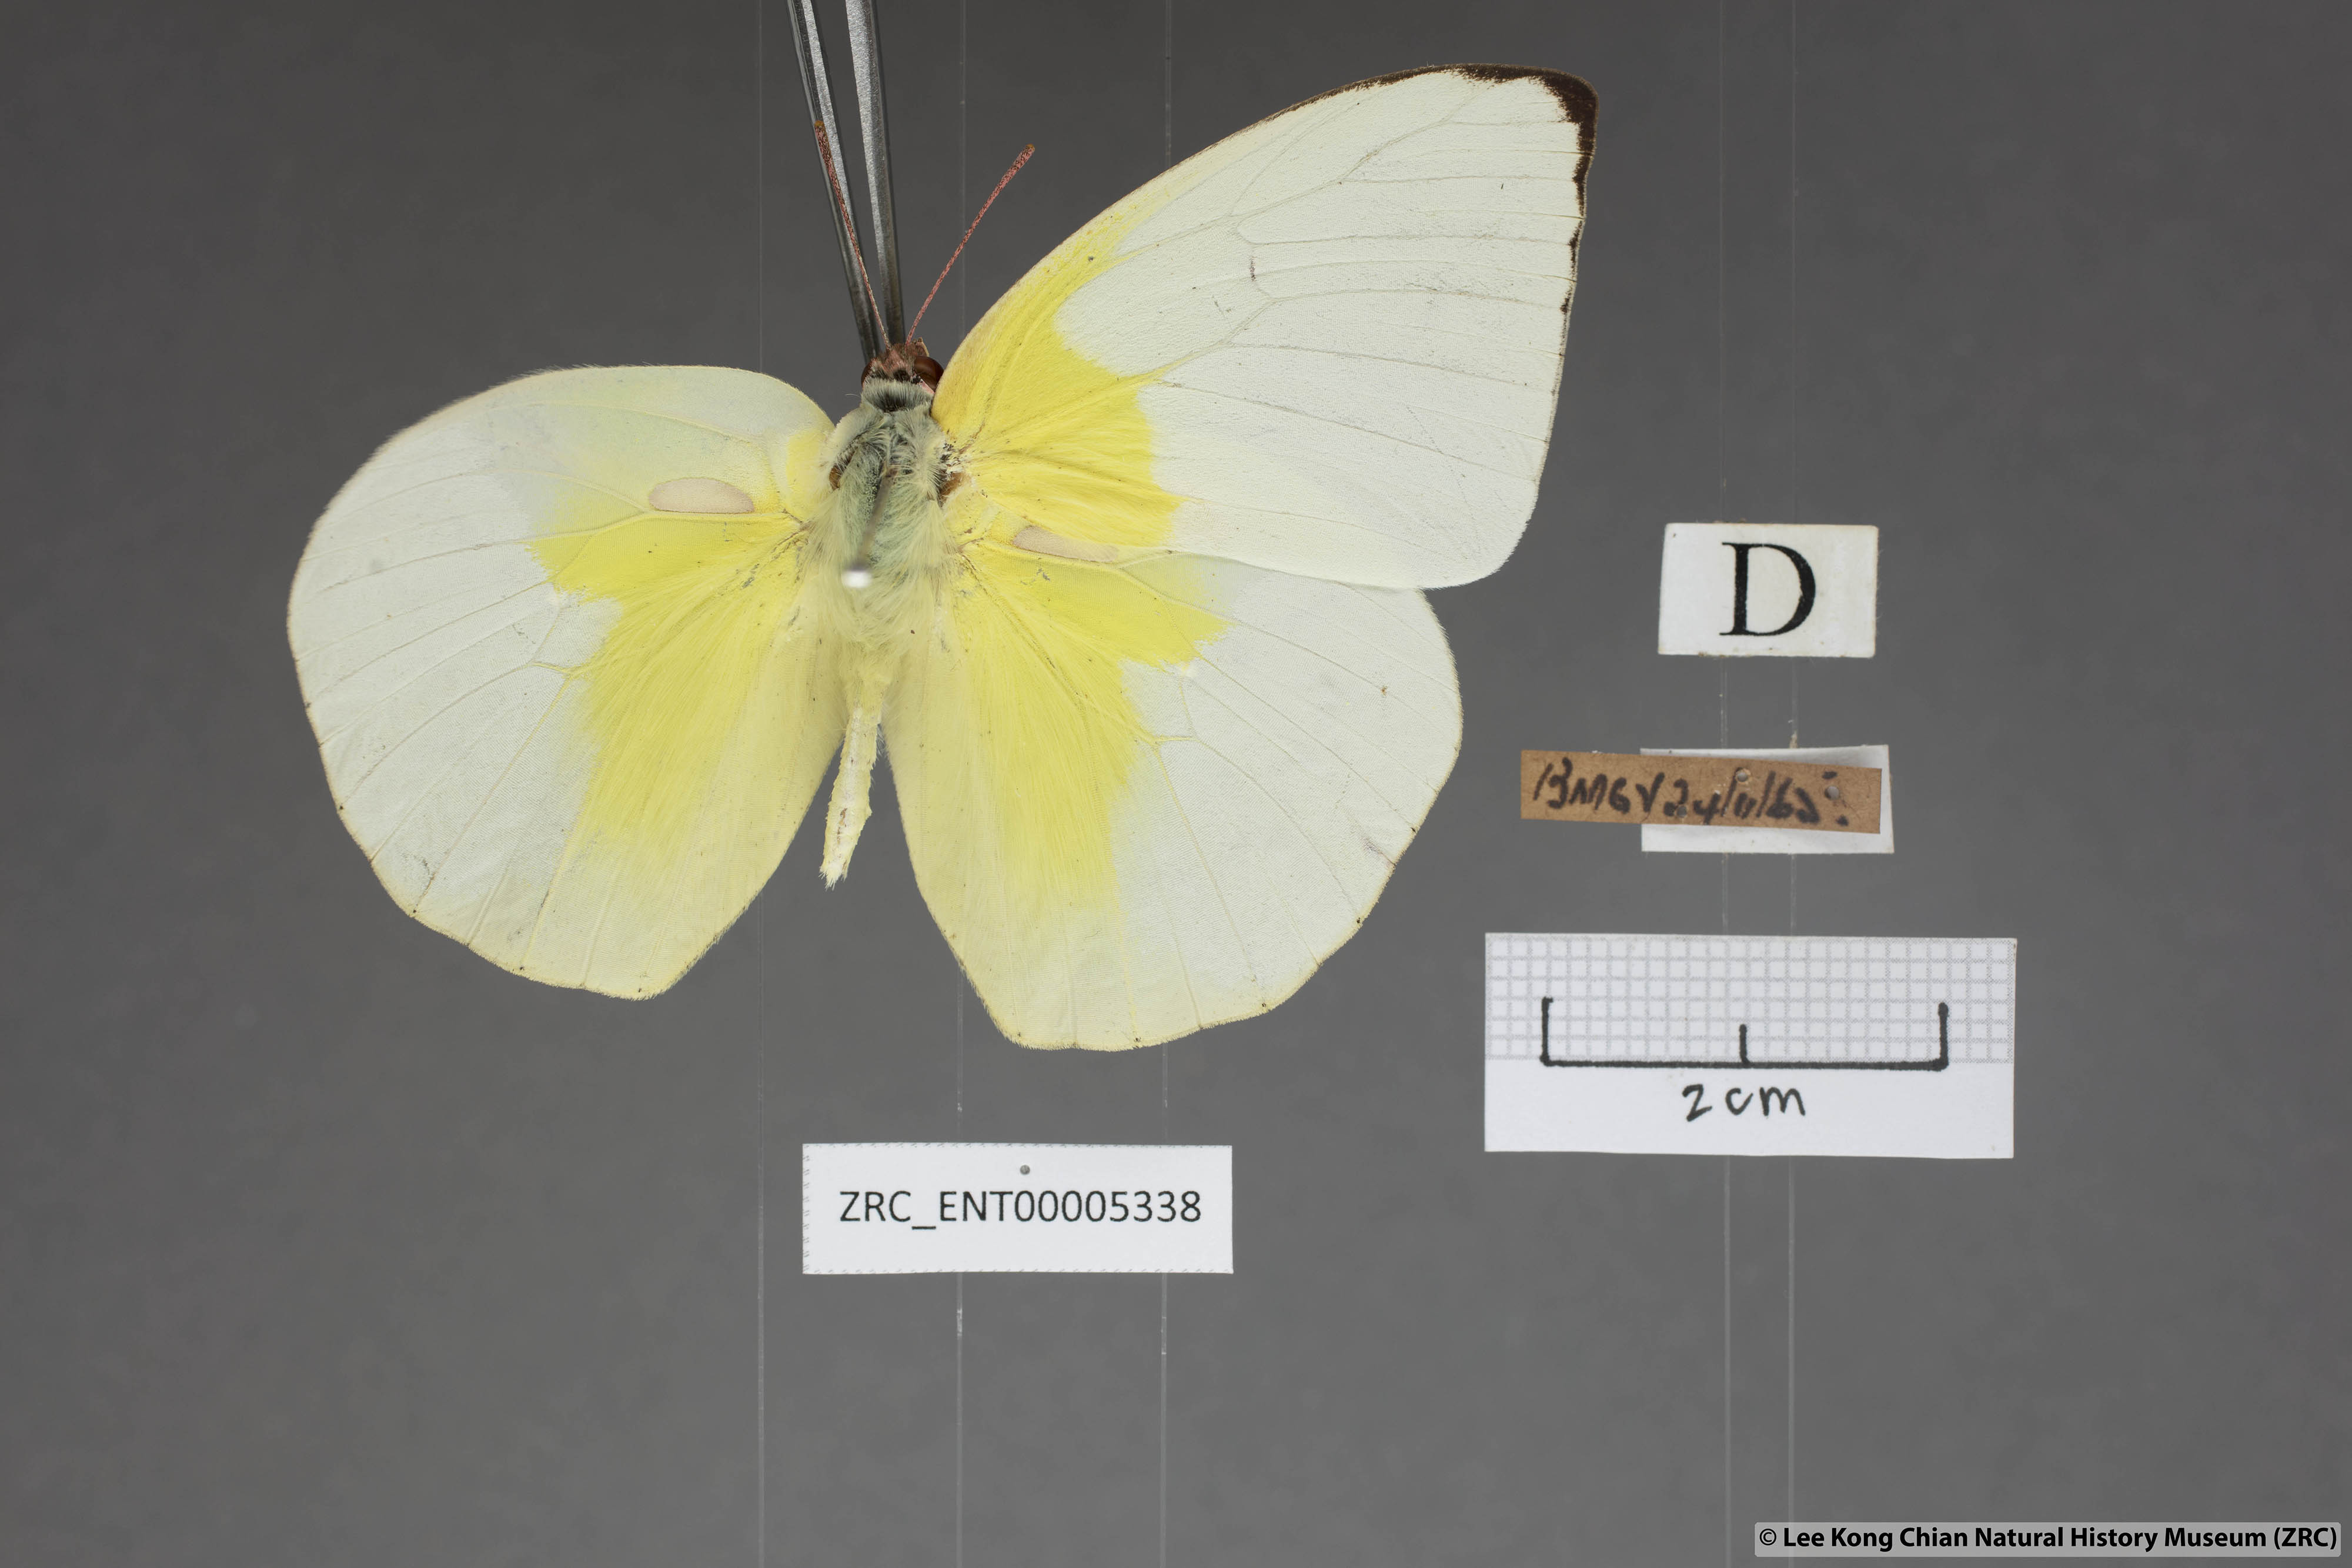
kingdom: Animalia
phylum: Arthropoda
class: Insecta
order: Lepidoptera
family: Pieridae
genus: Catopsilia
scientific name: Catopsilia pomona
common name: Common emigrant
